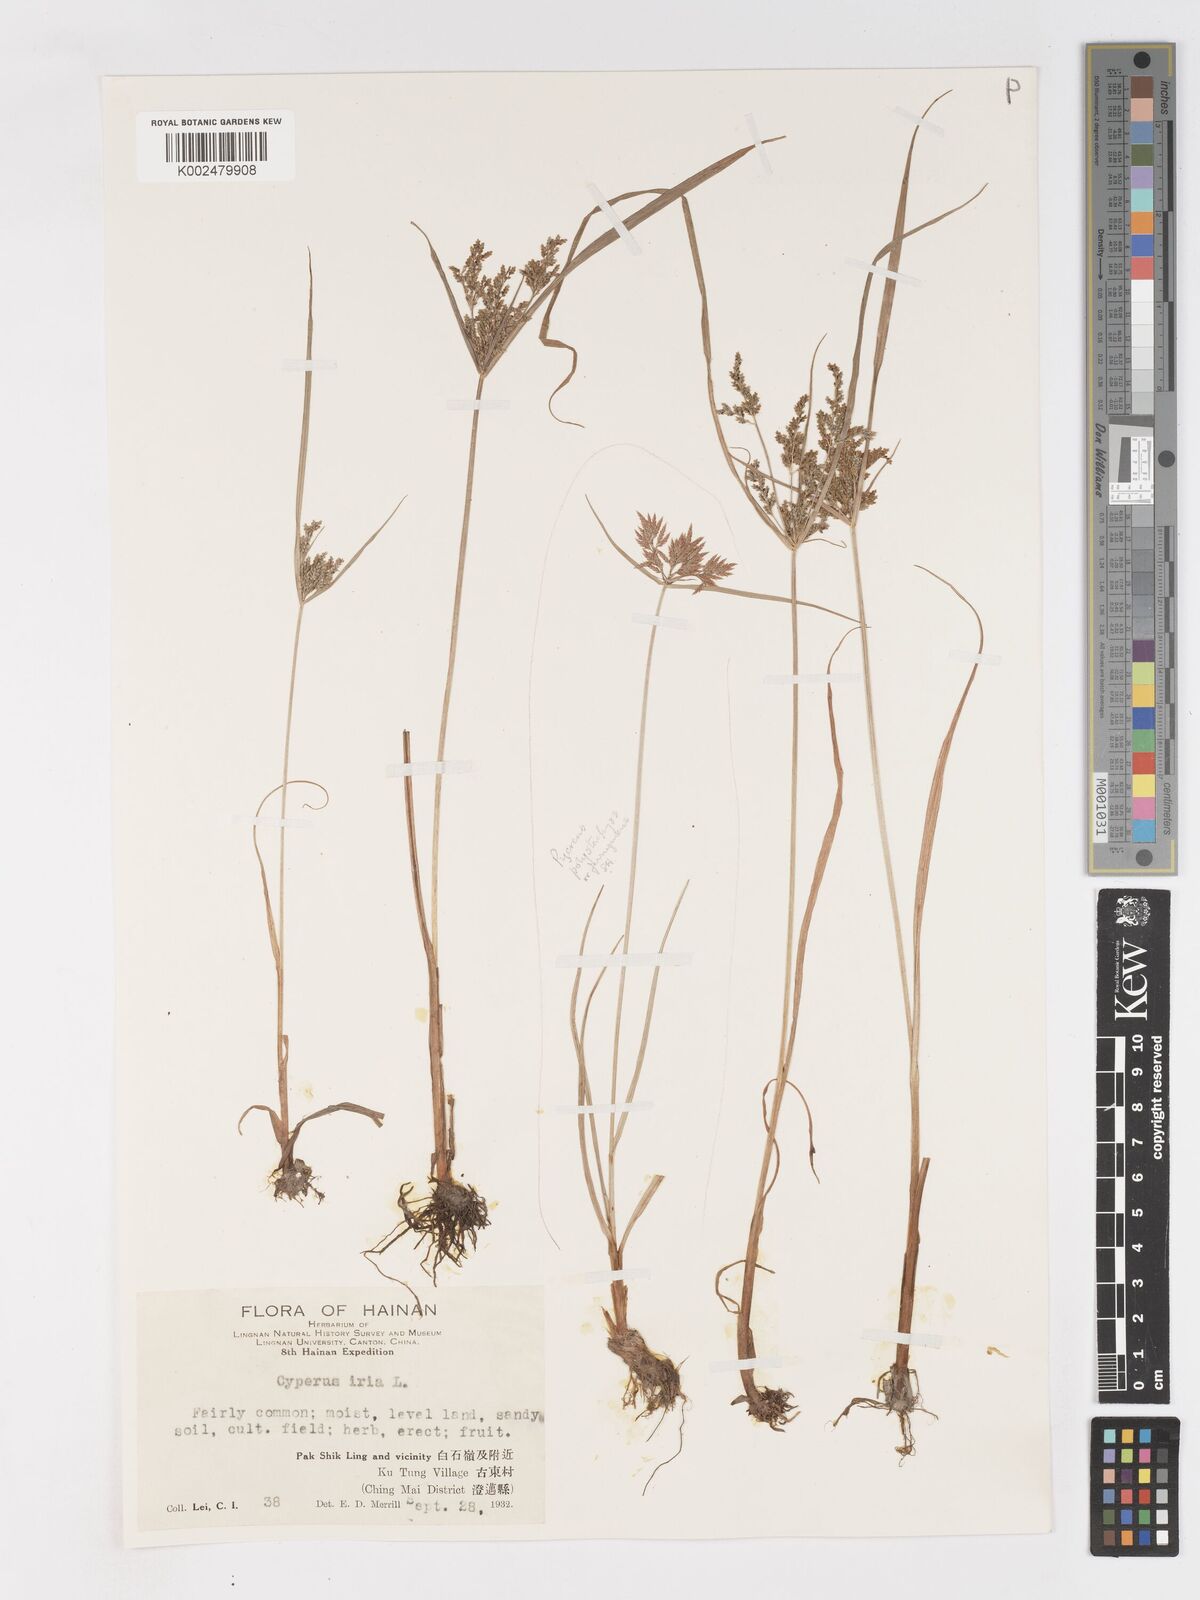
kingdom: Plantae
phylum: Tracheophyta
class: Liliopsida
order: Poales
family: Cyperaceae
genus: Cyperus
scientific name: Cyperus iria
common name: Ricefield flatsedge
